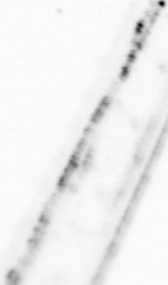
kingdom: Animalia
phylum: Chaetognatha
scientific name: Chaetognatha
